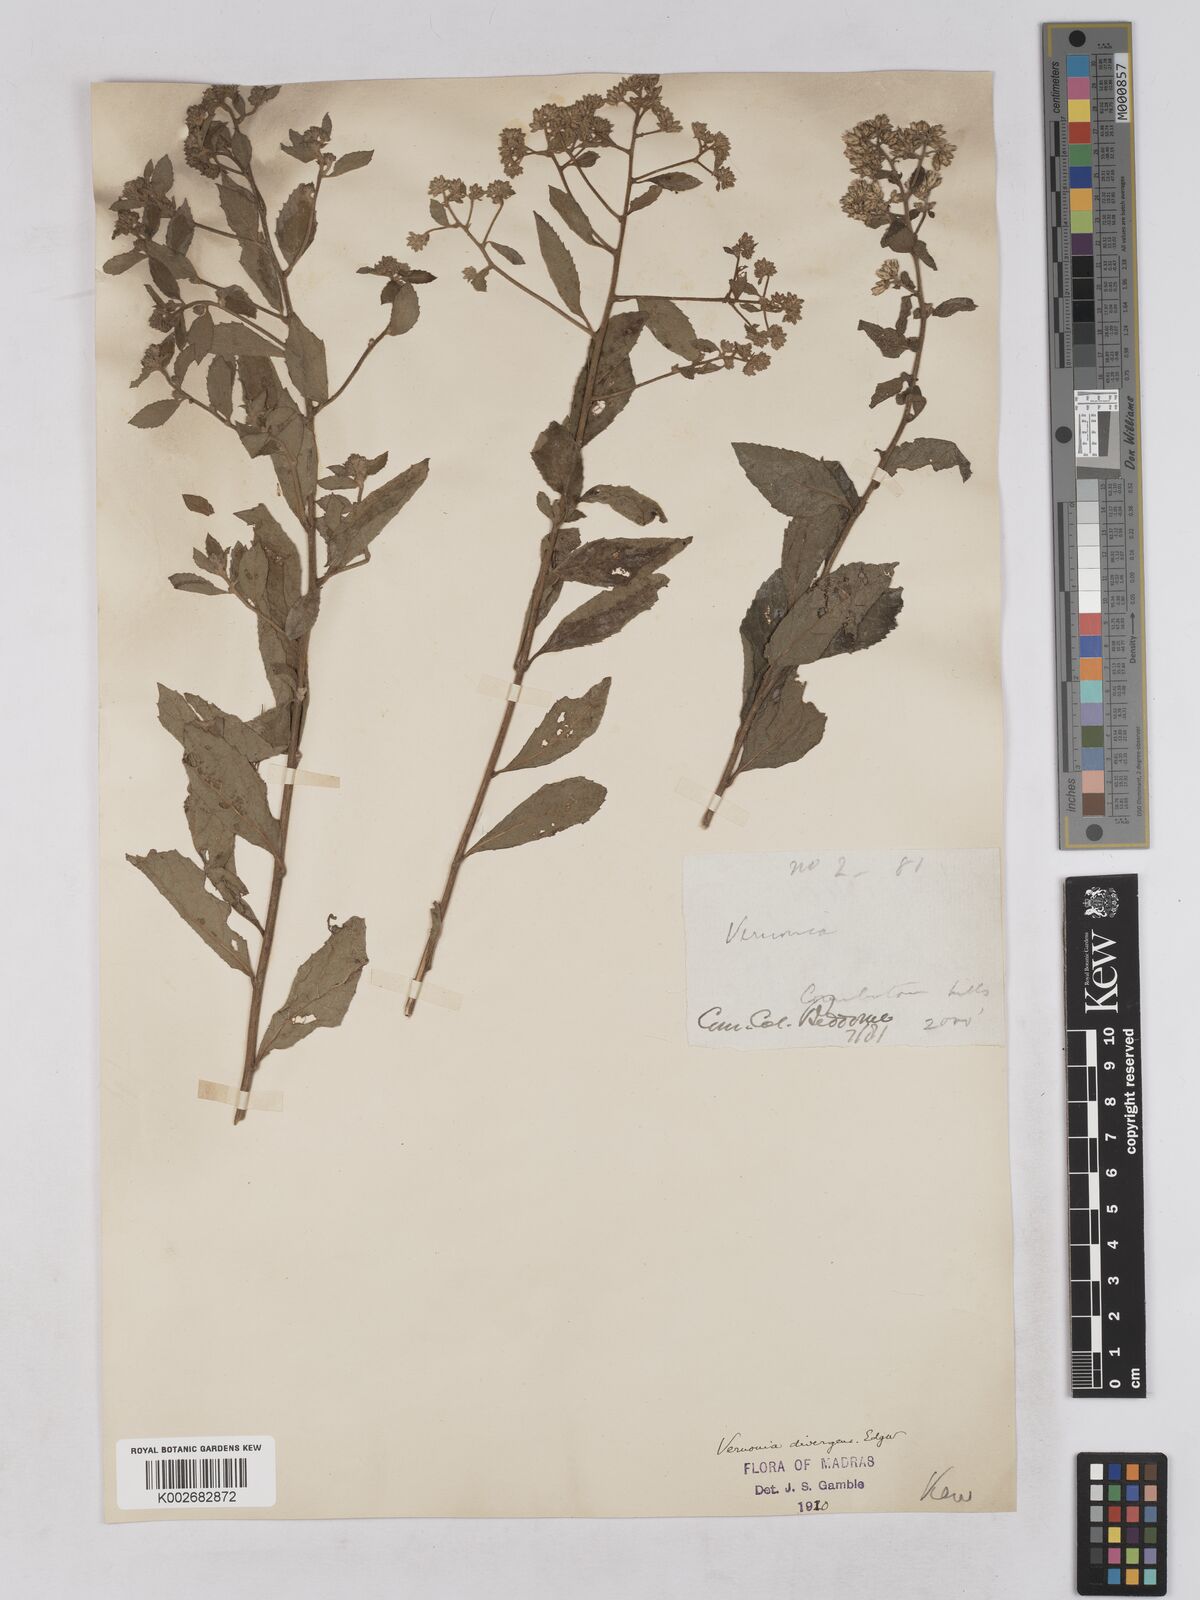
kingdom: Plantae
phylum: Tracheophyta
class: Magnoliopsida
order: Asterales
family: Asteraceae
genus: Acilepis
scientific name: Acilepis divergens
